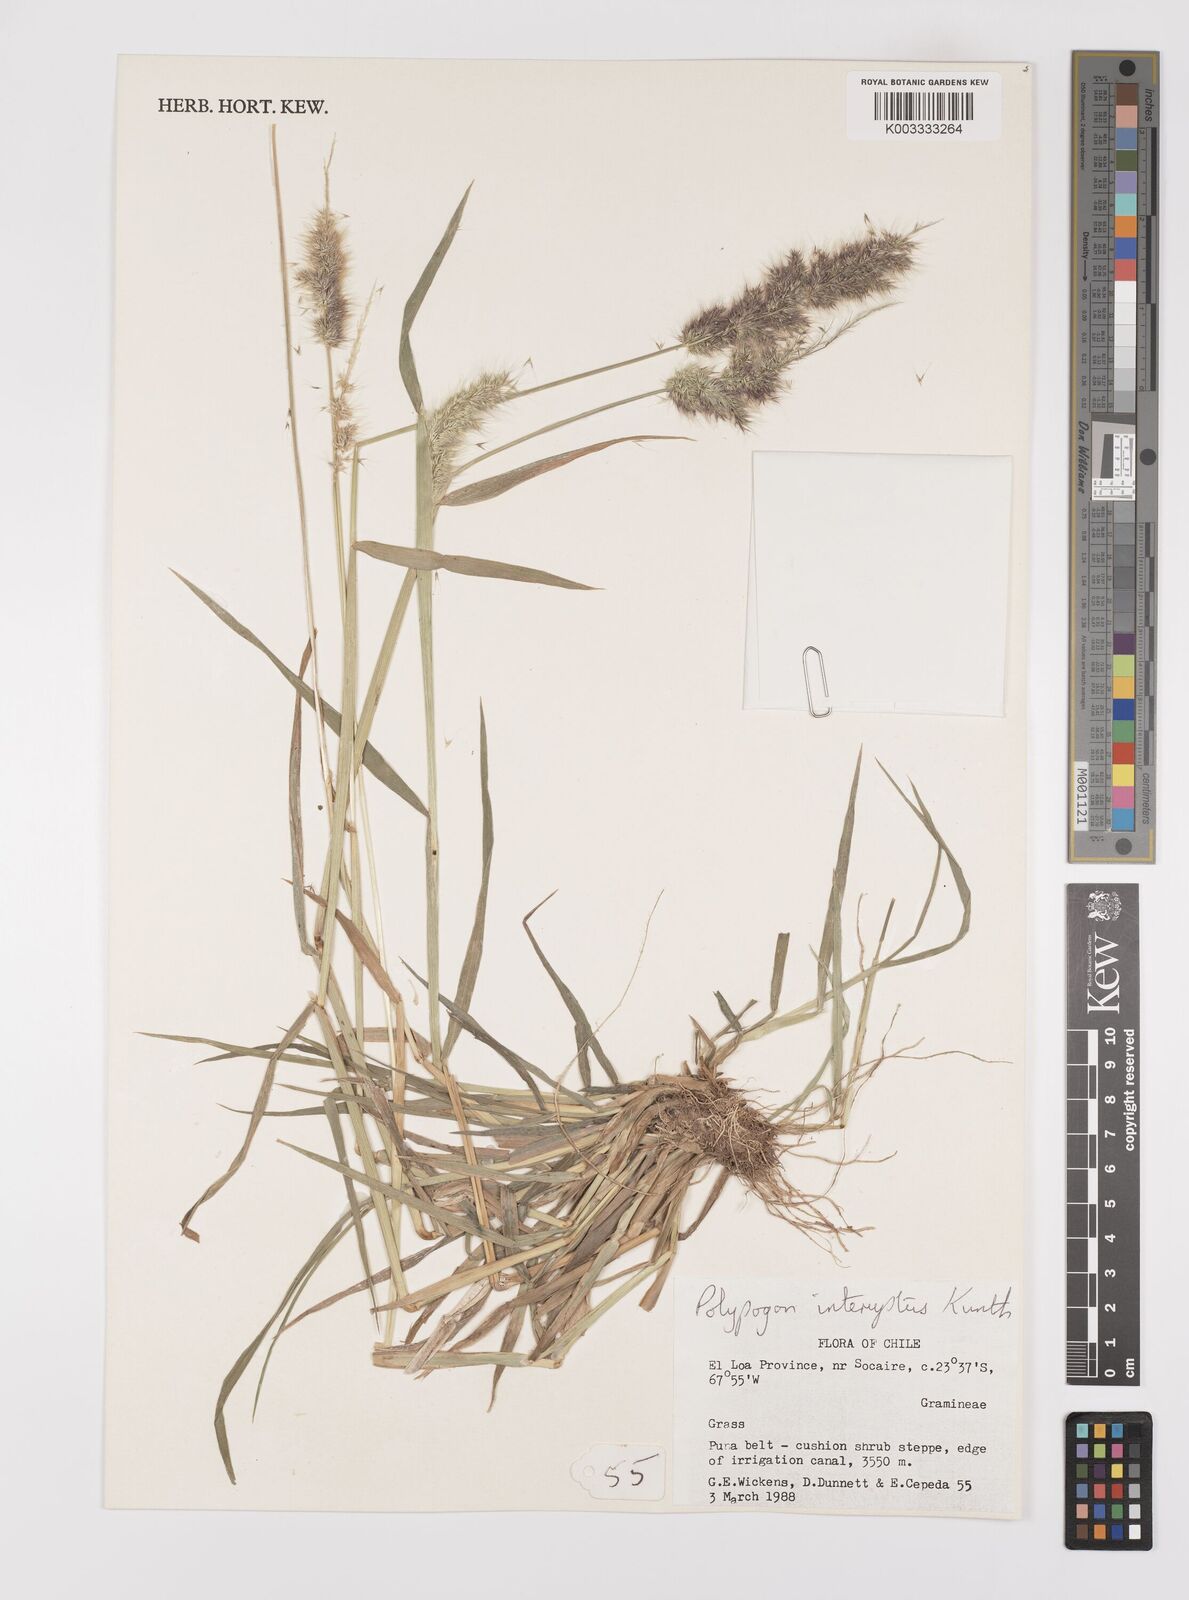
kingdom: Plantae
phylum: Tracheophyta
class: Liliopsida
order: Poales
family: Poaceae
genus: Polypogon
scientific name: Polypogon interruptus
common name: Ditch polypogon
